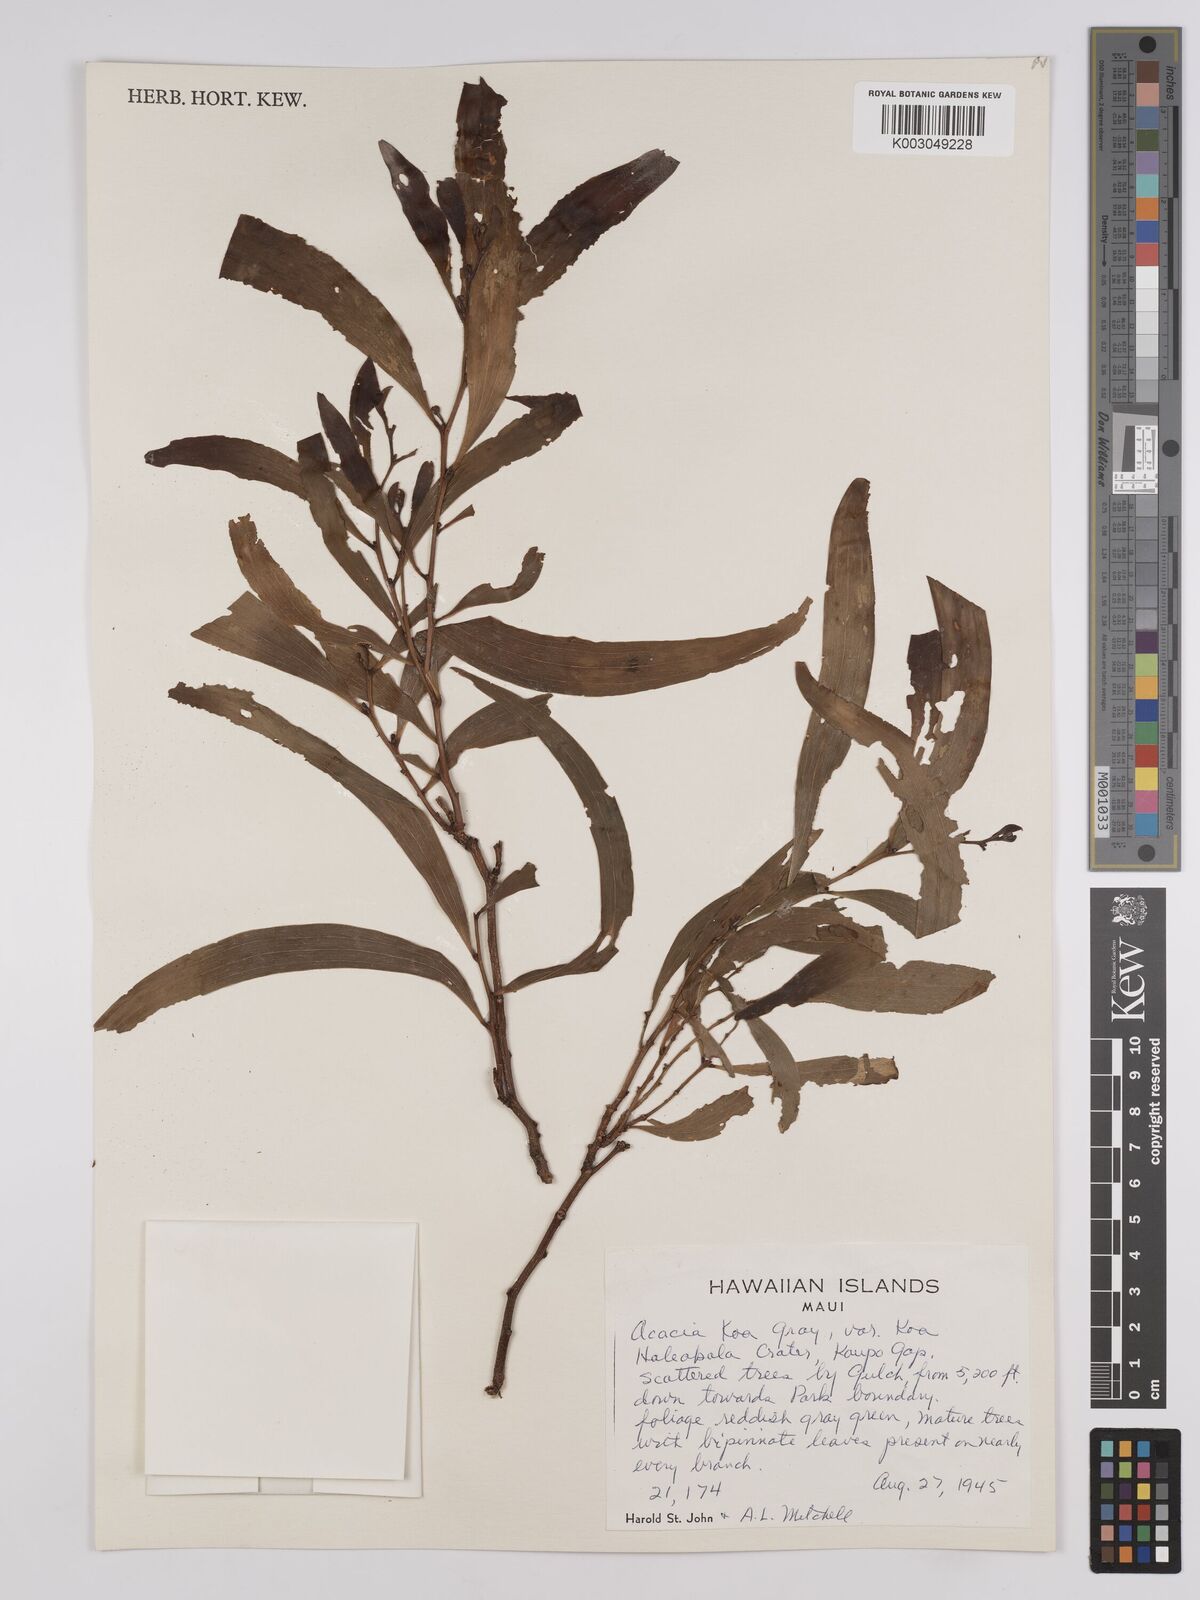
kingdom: Plantae
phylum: Tracheophyta
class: Magnoliopsida
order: Fabales
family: Fabaceae
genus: Acacia
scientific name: Acacia koa
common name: Gray koa
